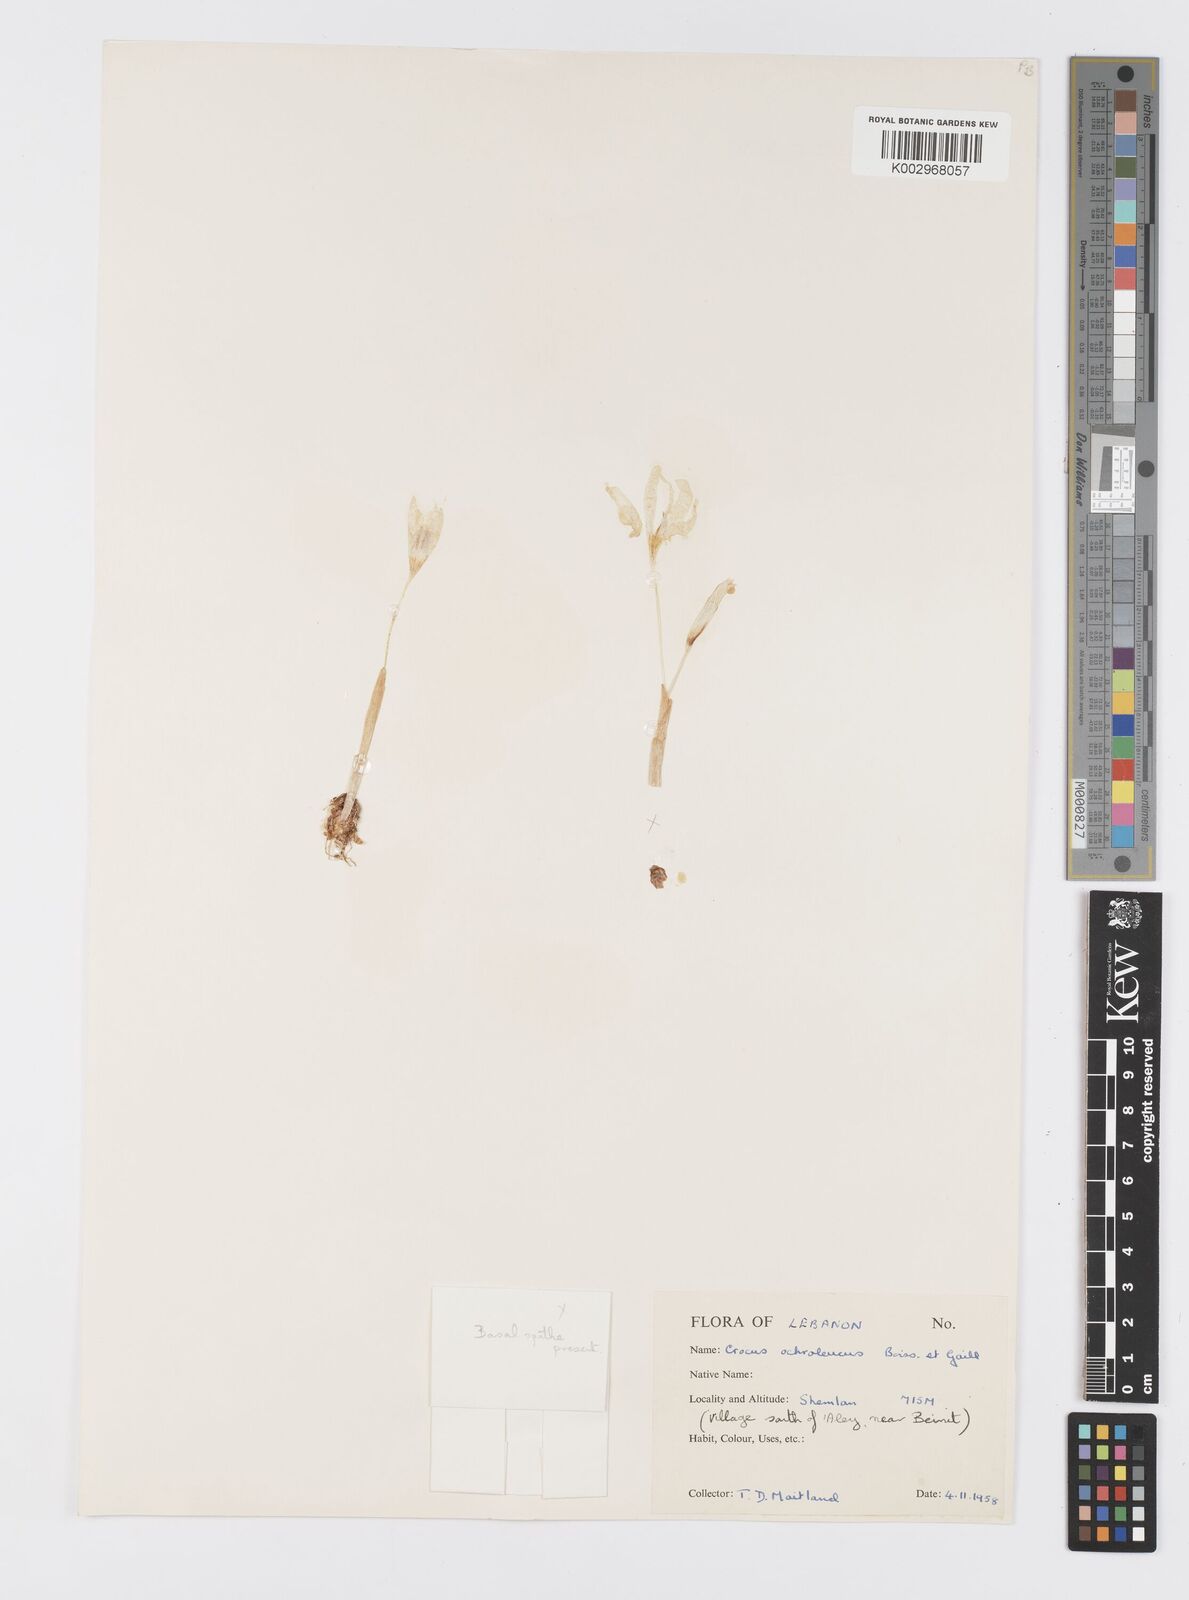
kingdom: Plantae
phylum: Tracheophyta
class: Liliopsida
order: Asparagales
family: Iridaceae
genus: Crocus
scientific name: Crocus ochroleucus
